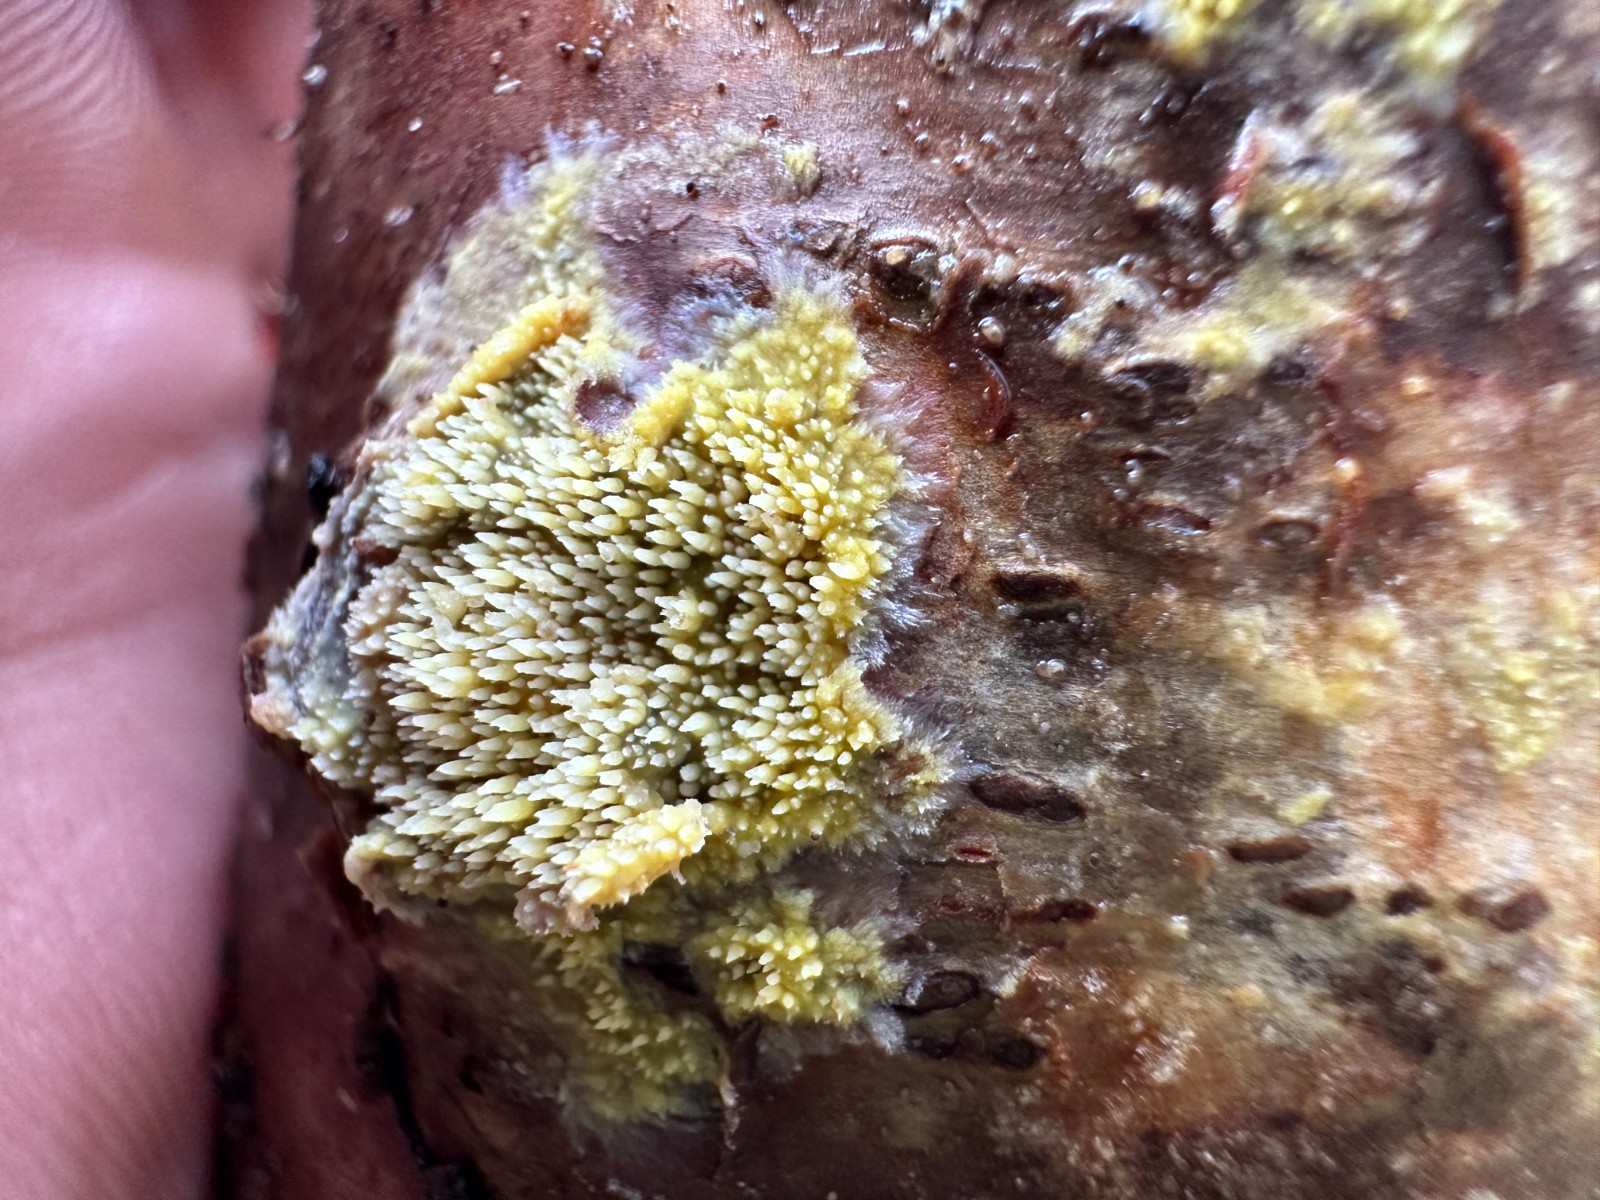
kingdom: Fungi
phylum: Basidiomycota
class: Agaricomycetes
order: Polyporales
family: Meruliaceae
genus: Mycoacia
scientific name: Mycoacia uda
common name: citrongul vokspig
